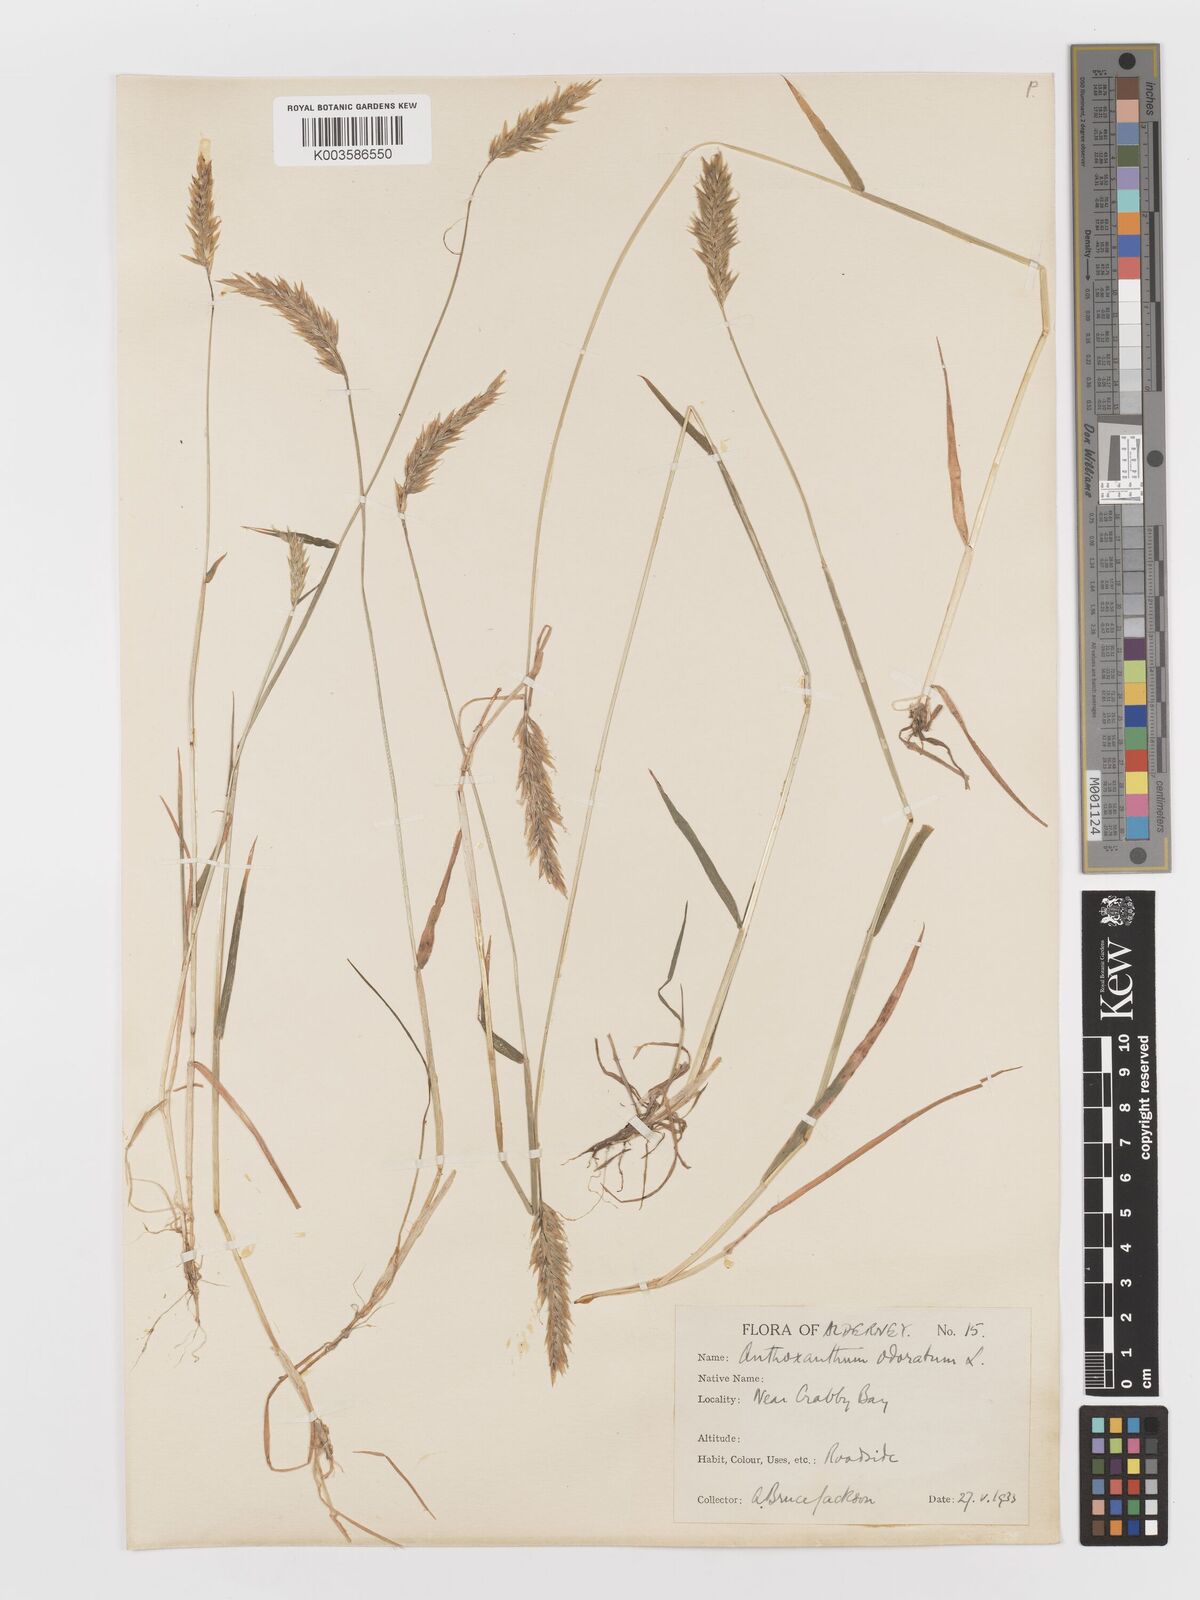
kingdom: Plantae
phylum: Tracheophyta
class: Liliopsida
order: Poales
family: Poaceae
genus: Anthoxanthum
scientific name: Anthoxanthum odoratum
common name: Sweet vernalgrass
